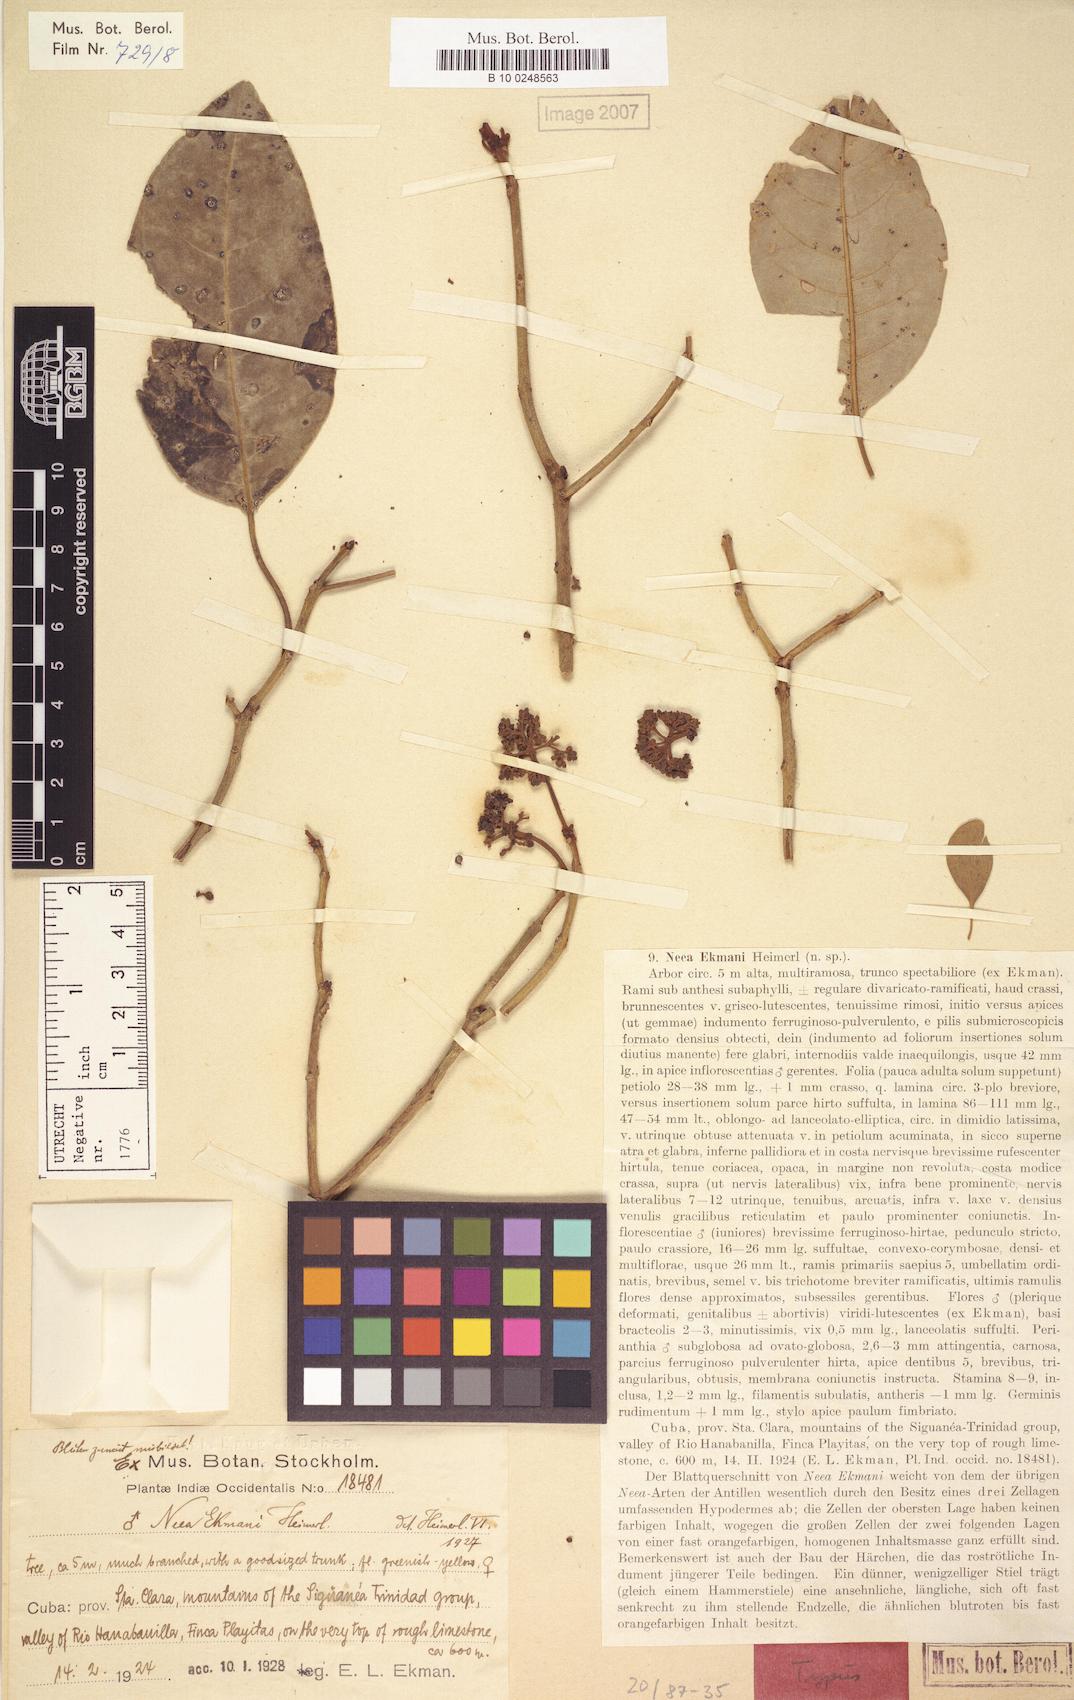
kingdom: Plantae
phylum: Tracheophyta
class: Magnoliopsida
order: Caryophyllales
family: Nyctaginaceae
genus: Neea
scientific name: Neea ekmanii
